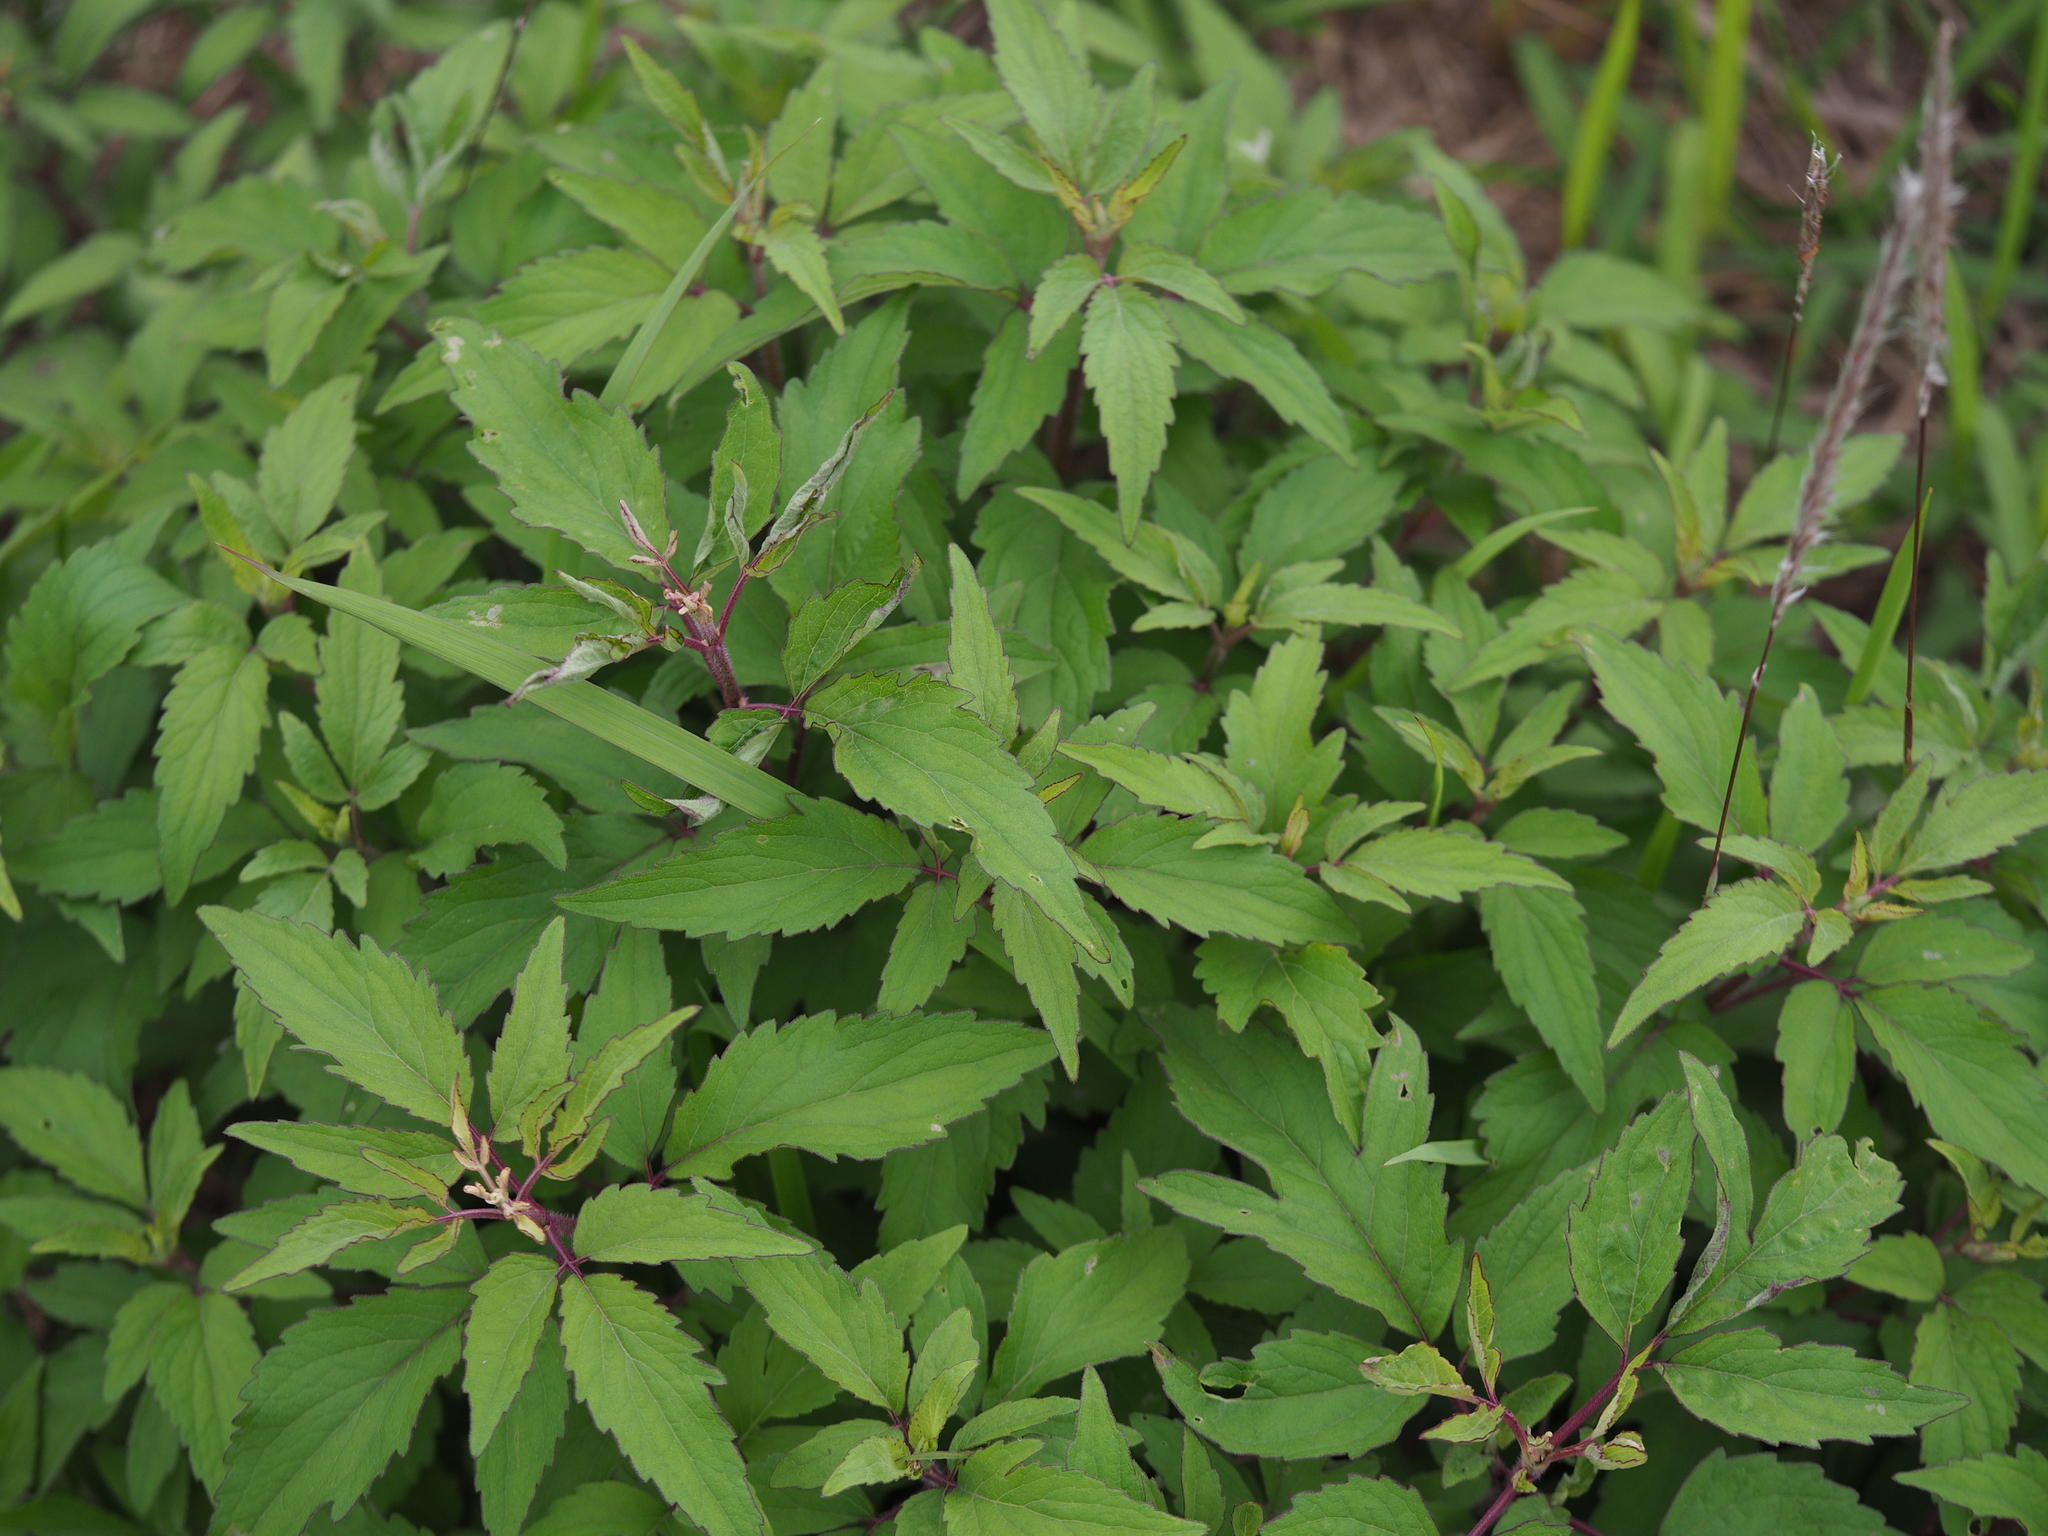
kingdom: Plantae
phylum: Tracheophyta
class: Magnoliopsida
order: Asterales
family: Asteraceae
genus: Eupatorium
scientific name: Eupatorium formosanum
